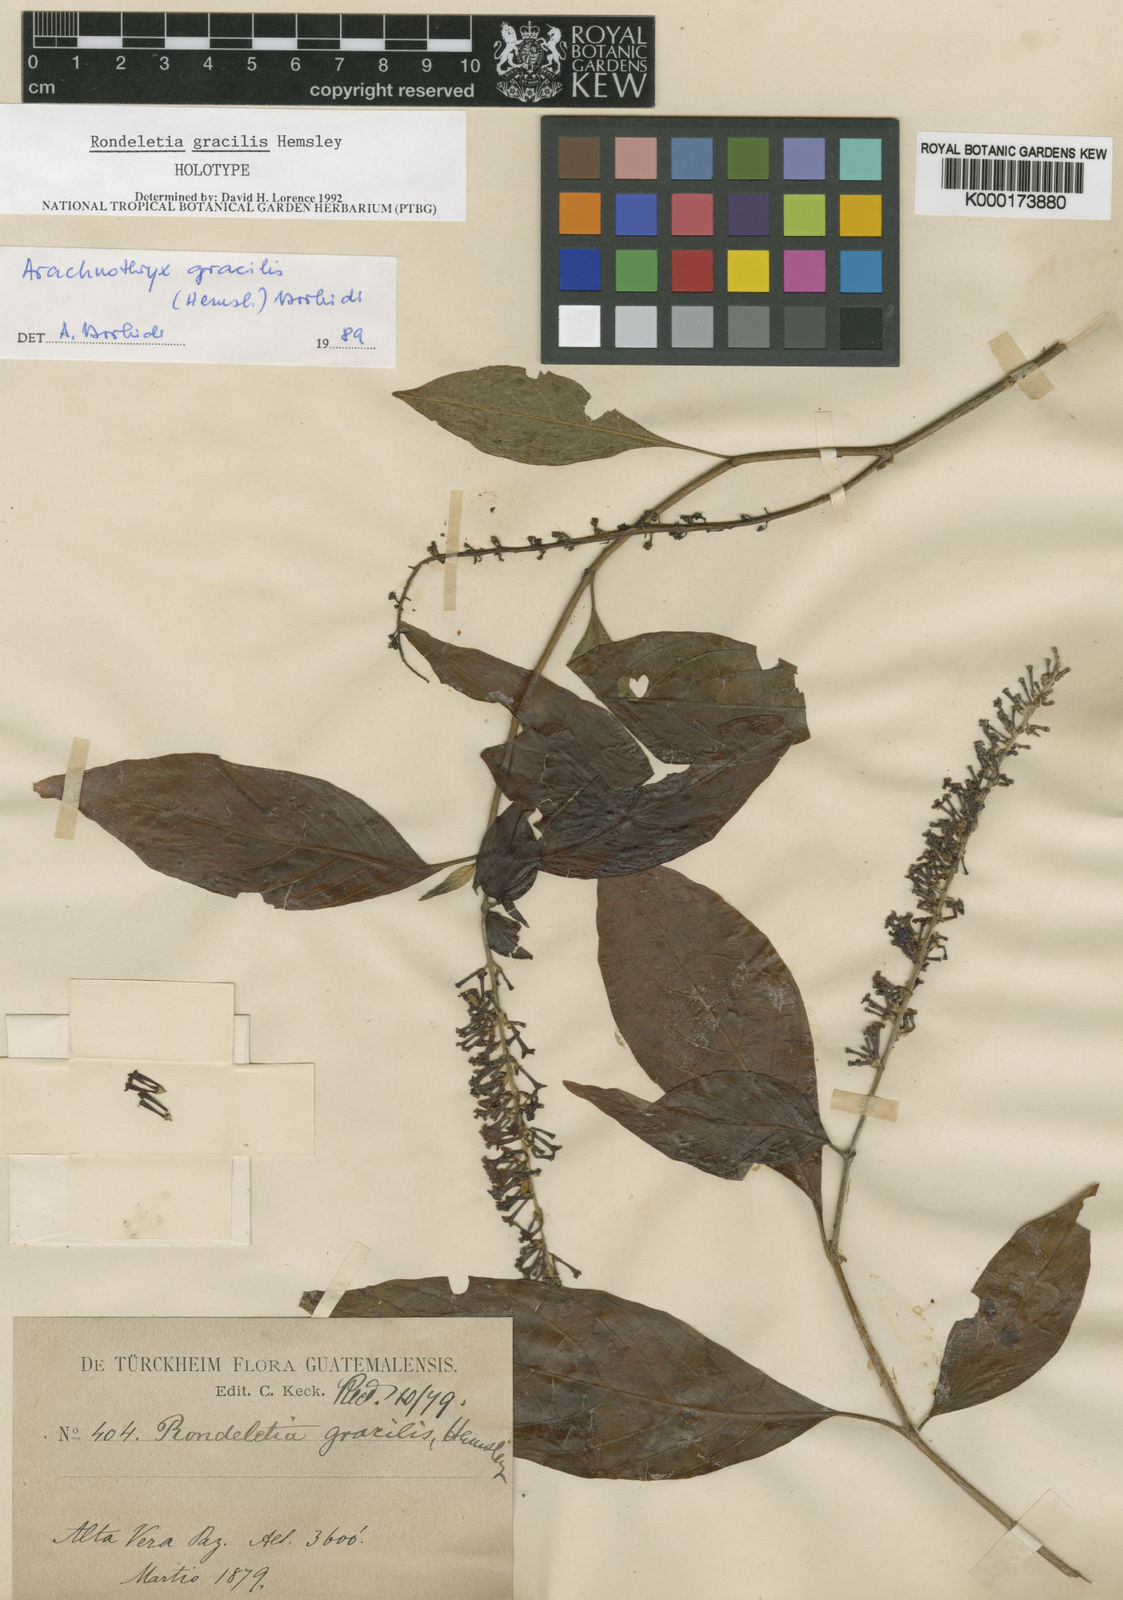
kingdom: Plantae
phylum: Tracheophyta
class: Magnoliopsida
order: Gentianales
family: Rubiaceae
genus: Arachnothryx
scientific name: Arachnothryx gracilis
